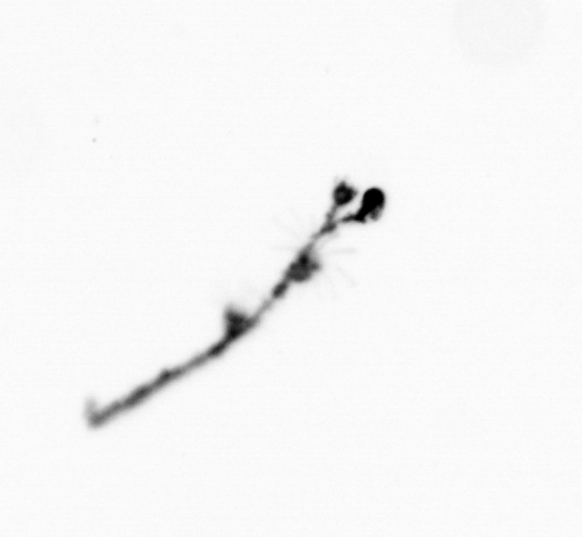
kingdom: Chromista
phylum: Ochrophyta
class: Bacillariophyceae
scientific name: Bacillariophyceae
